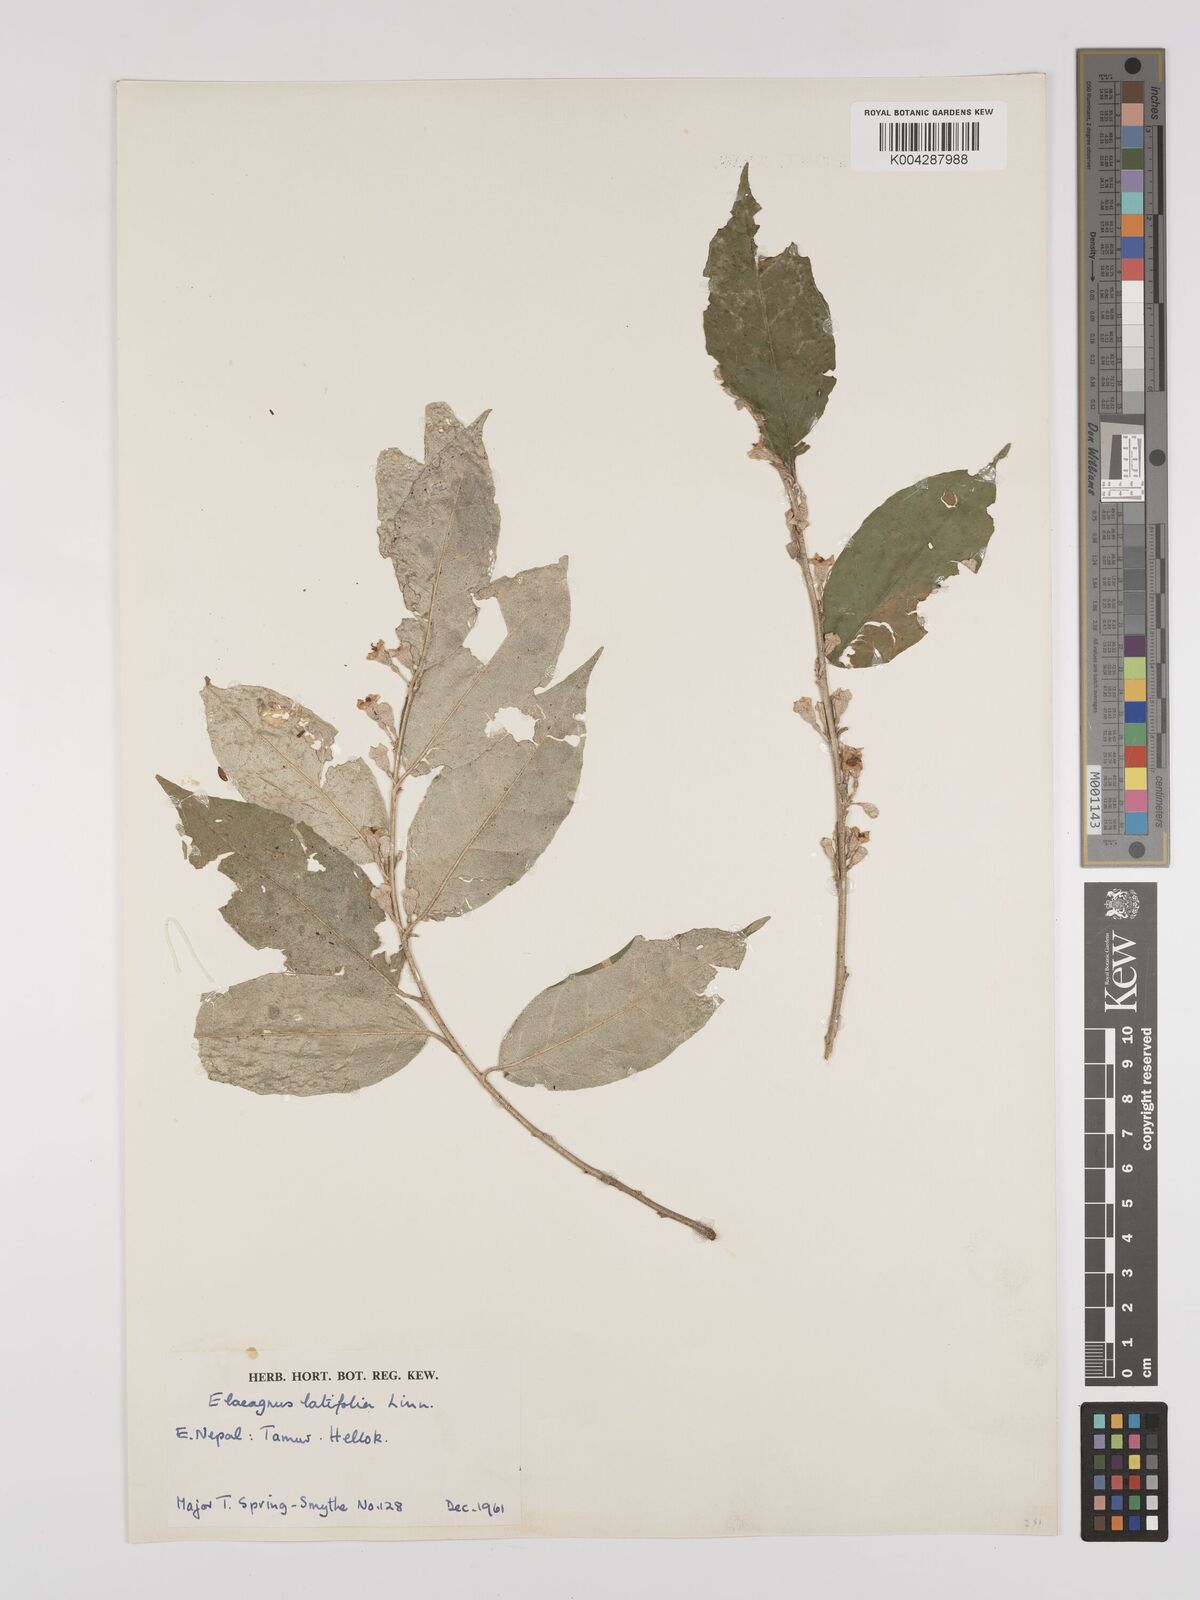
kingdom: Plantae
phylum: Tracheophyta
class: Magnoliopsida
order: Rosales
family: Elaeagnaceae
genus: Elaeagnus
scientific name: Elaeagnus latifolia
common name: Oleaster
